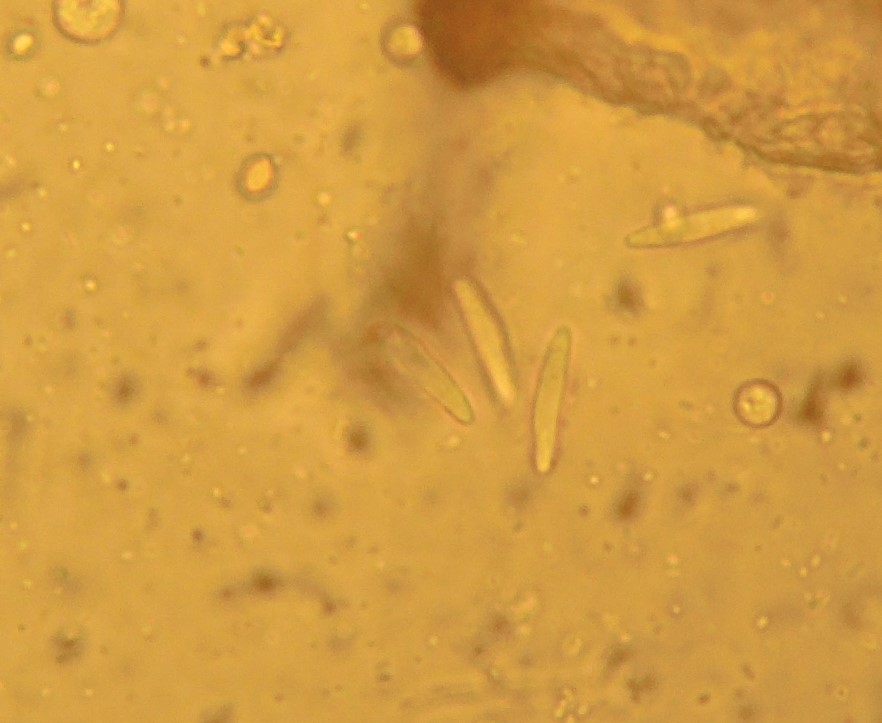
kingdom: Fungi
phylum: Ascomycota
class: Leotiomycetes
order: Helotiales
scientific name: Helotiales
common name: stilkskiveordenen
